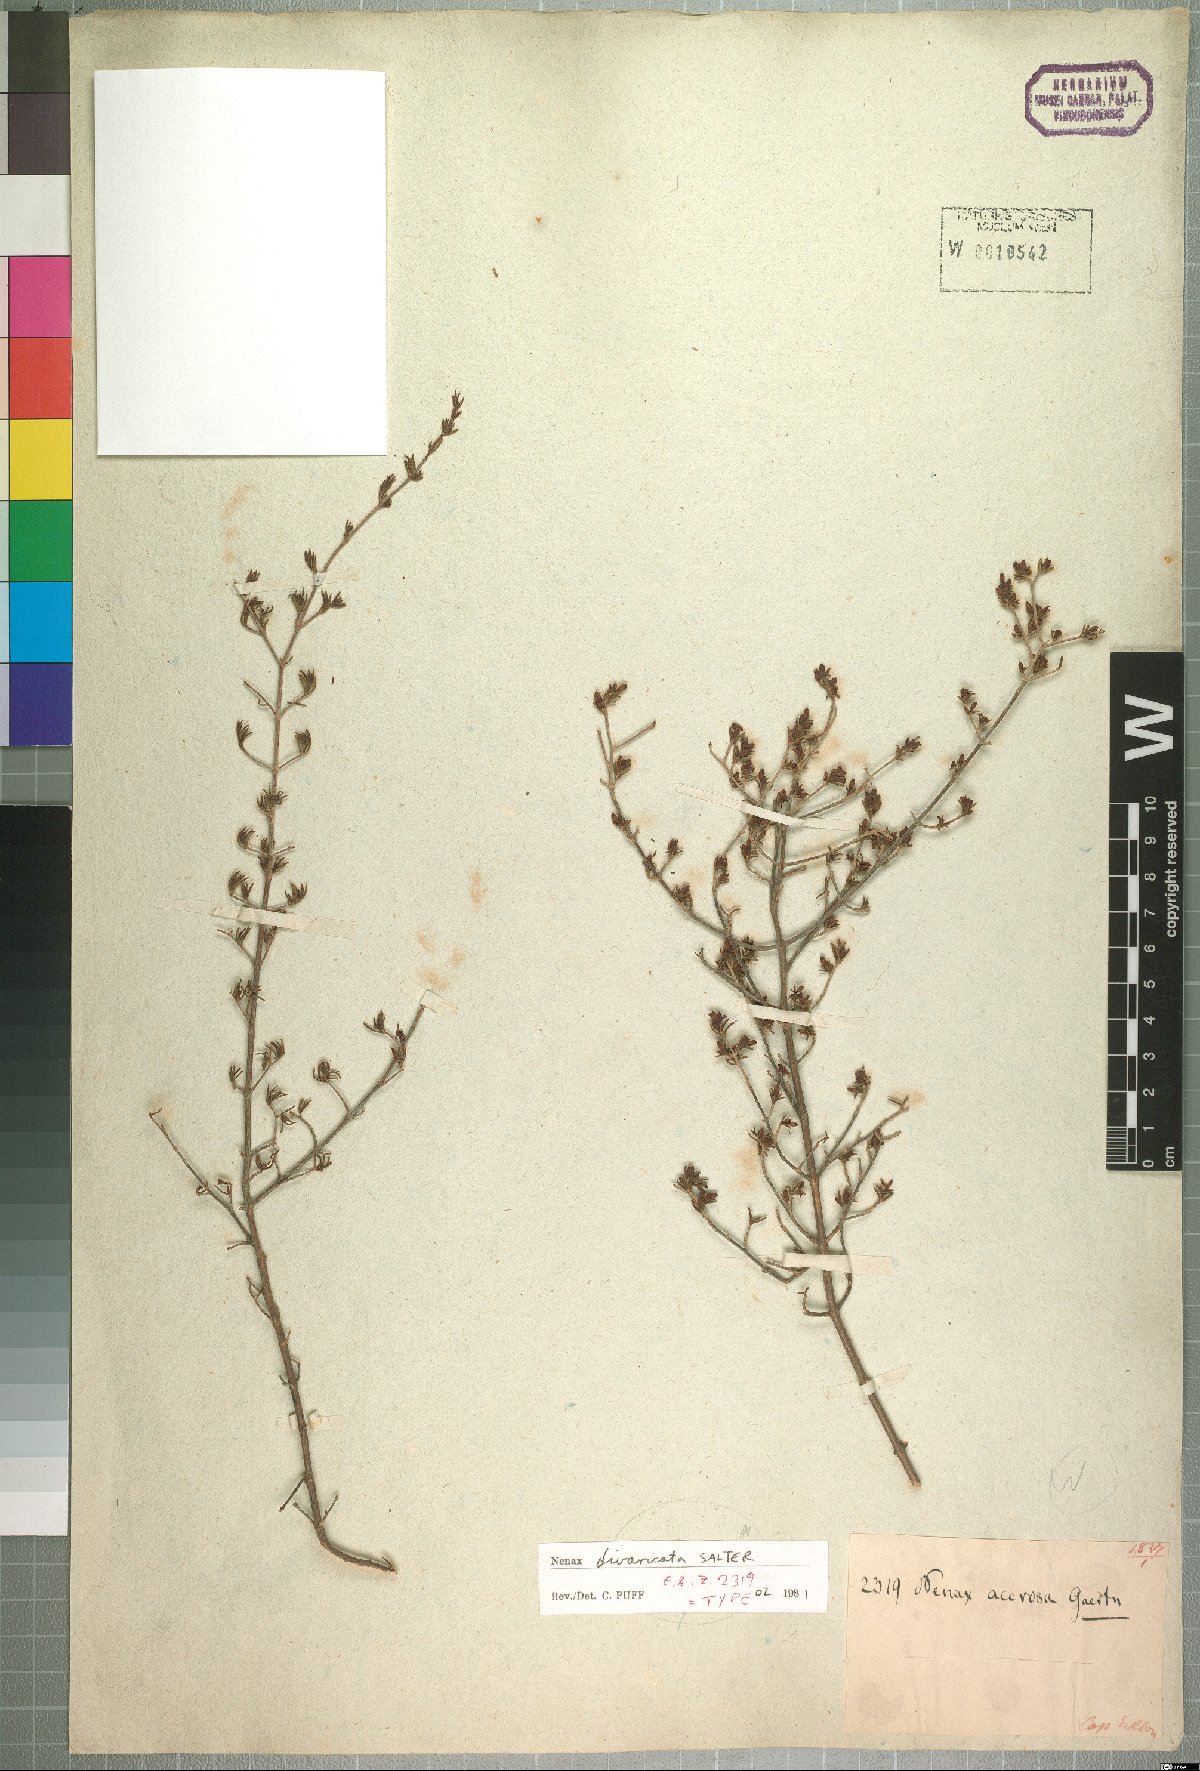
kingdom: Plantae
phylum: Tracheophyta
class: Magnoliopsida
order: Gentianales
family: Rubiaceae
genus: Nenax
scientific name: Nenax divaricata
